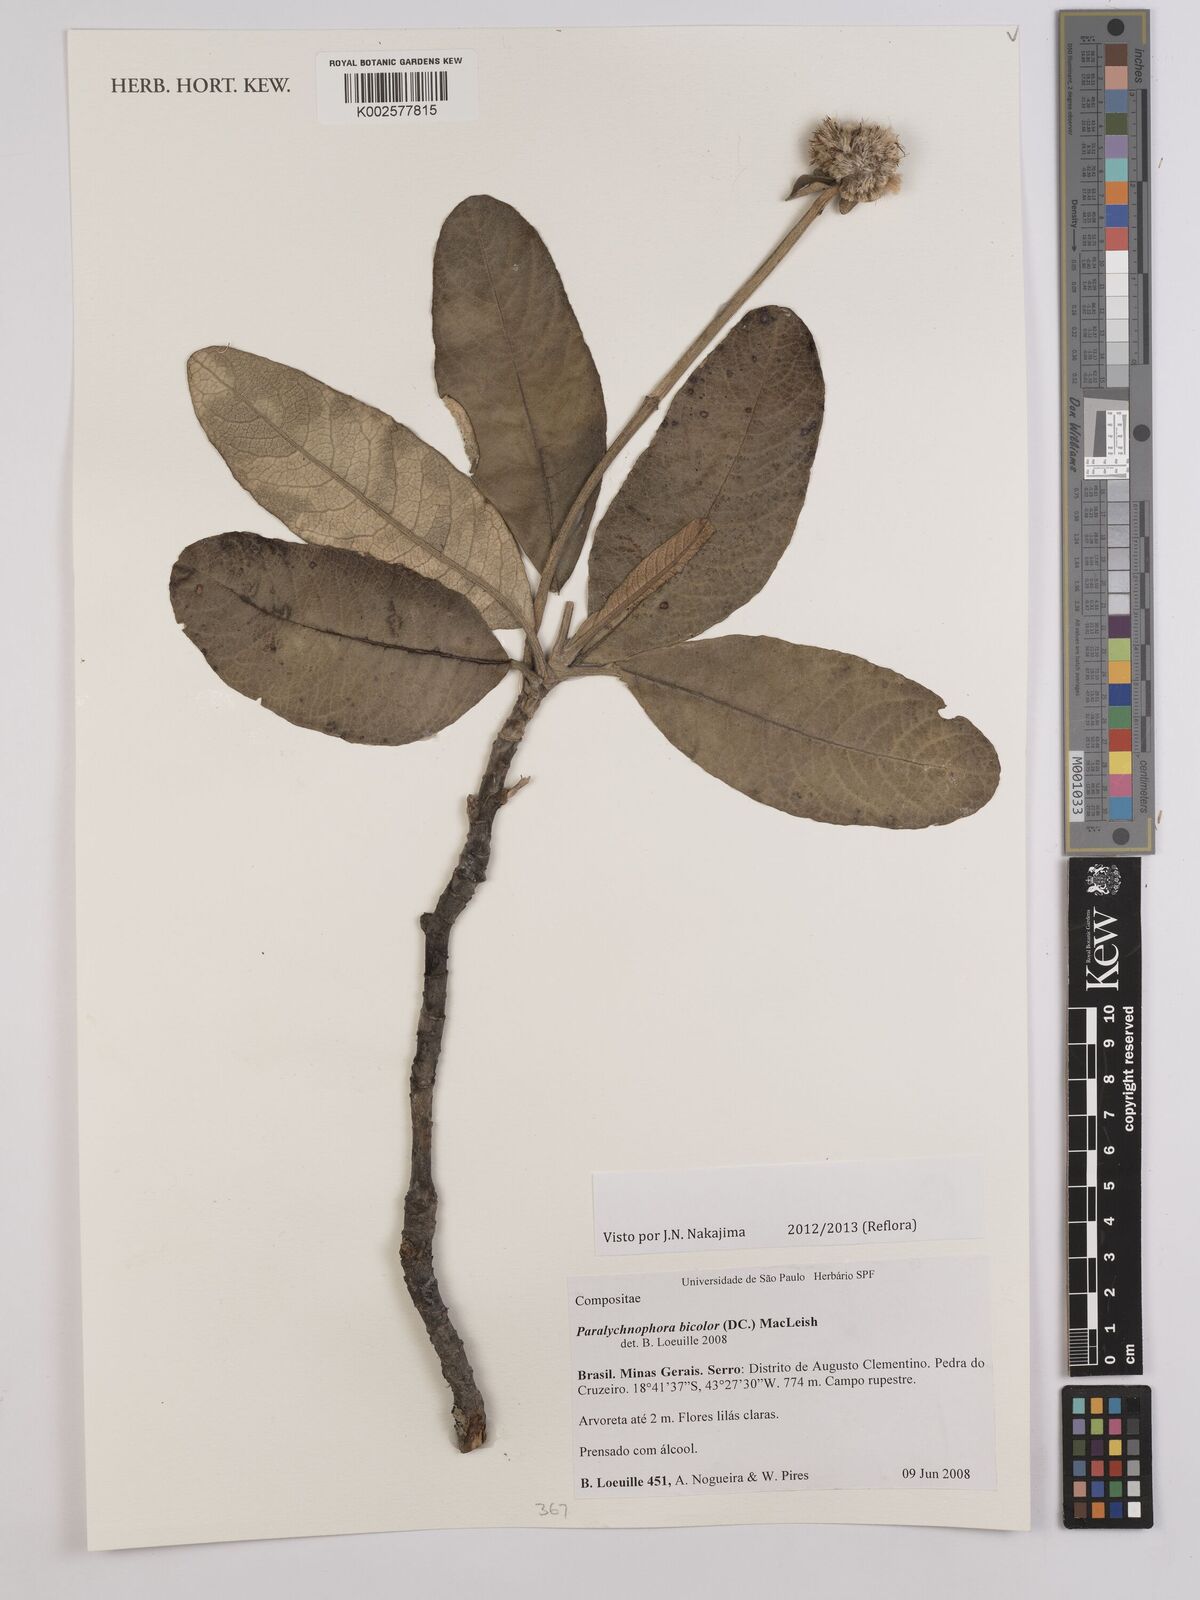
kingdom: Plantae
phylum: Tracheophyta
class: Magnoliopsida
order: Asterales
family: Asteraceae
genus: Paralychnophora
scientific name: Paralychnophora bicolor
